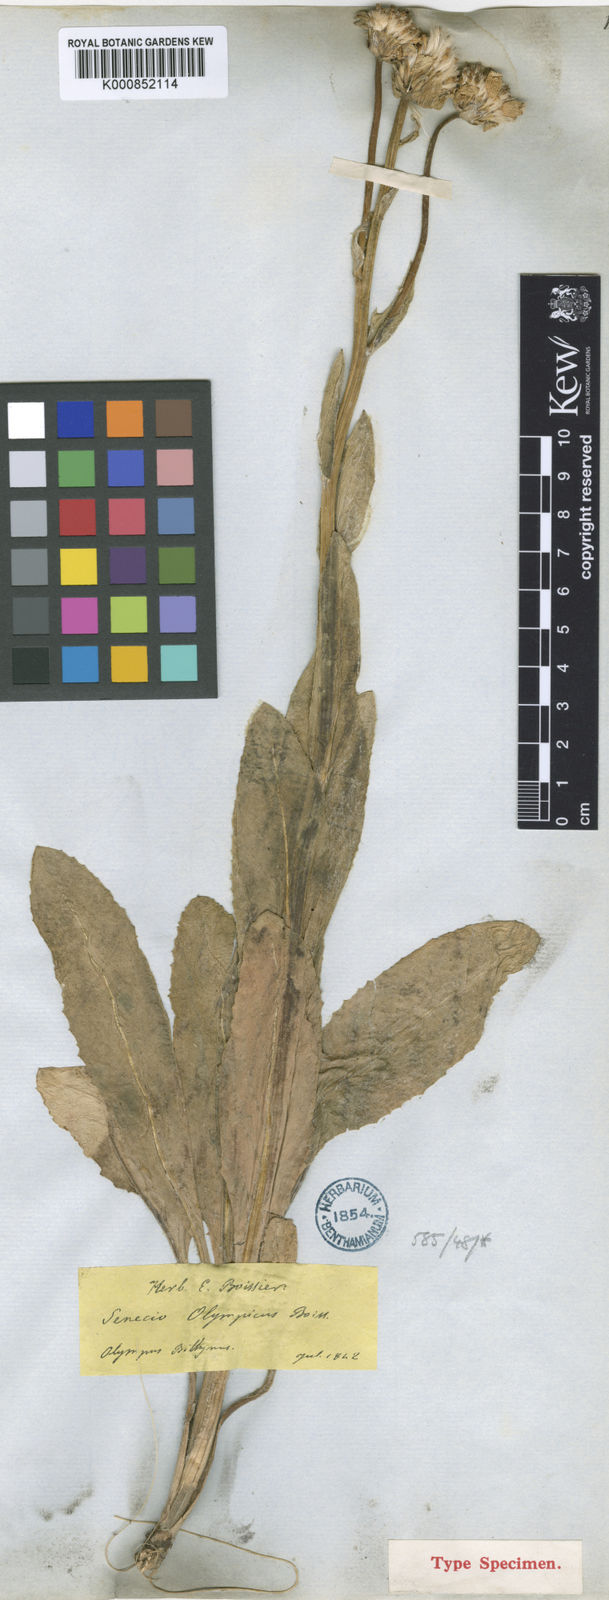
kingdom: Plantae
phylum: Tracheophyta
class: Magnoliopsida
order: Asterales
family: Asteraceae
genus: Senecio
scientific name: Senecio olympicus
